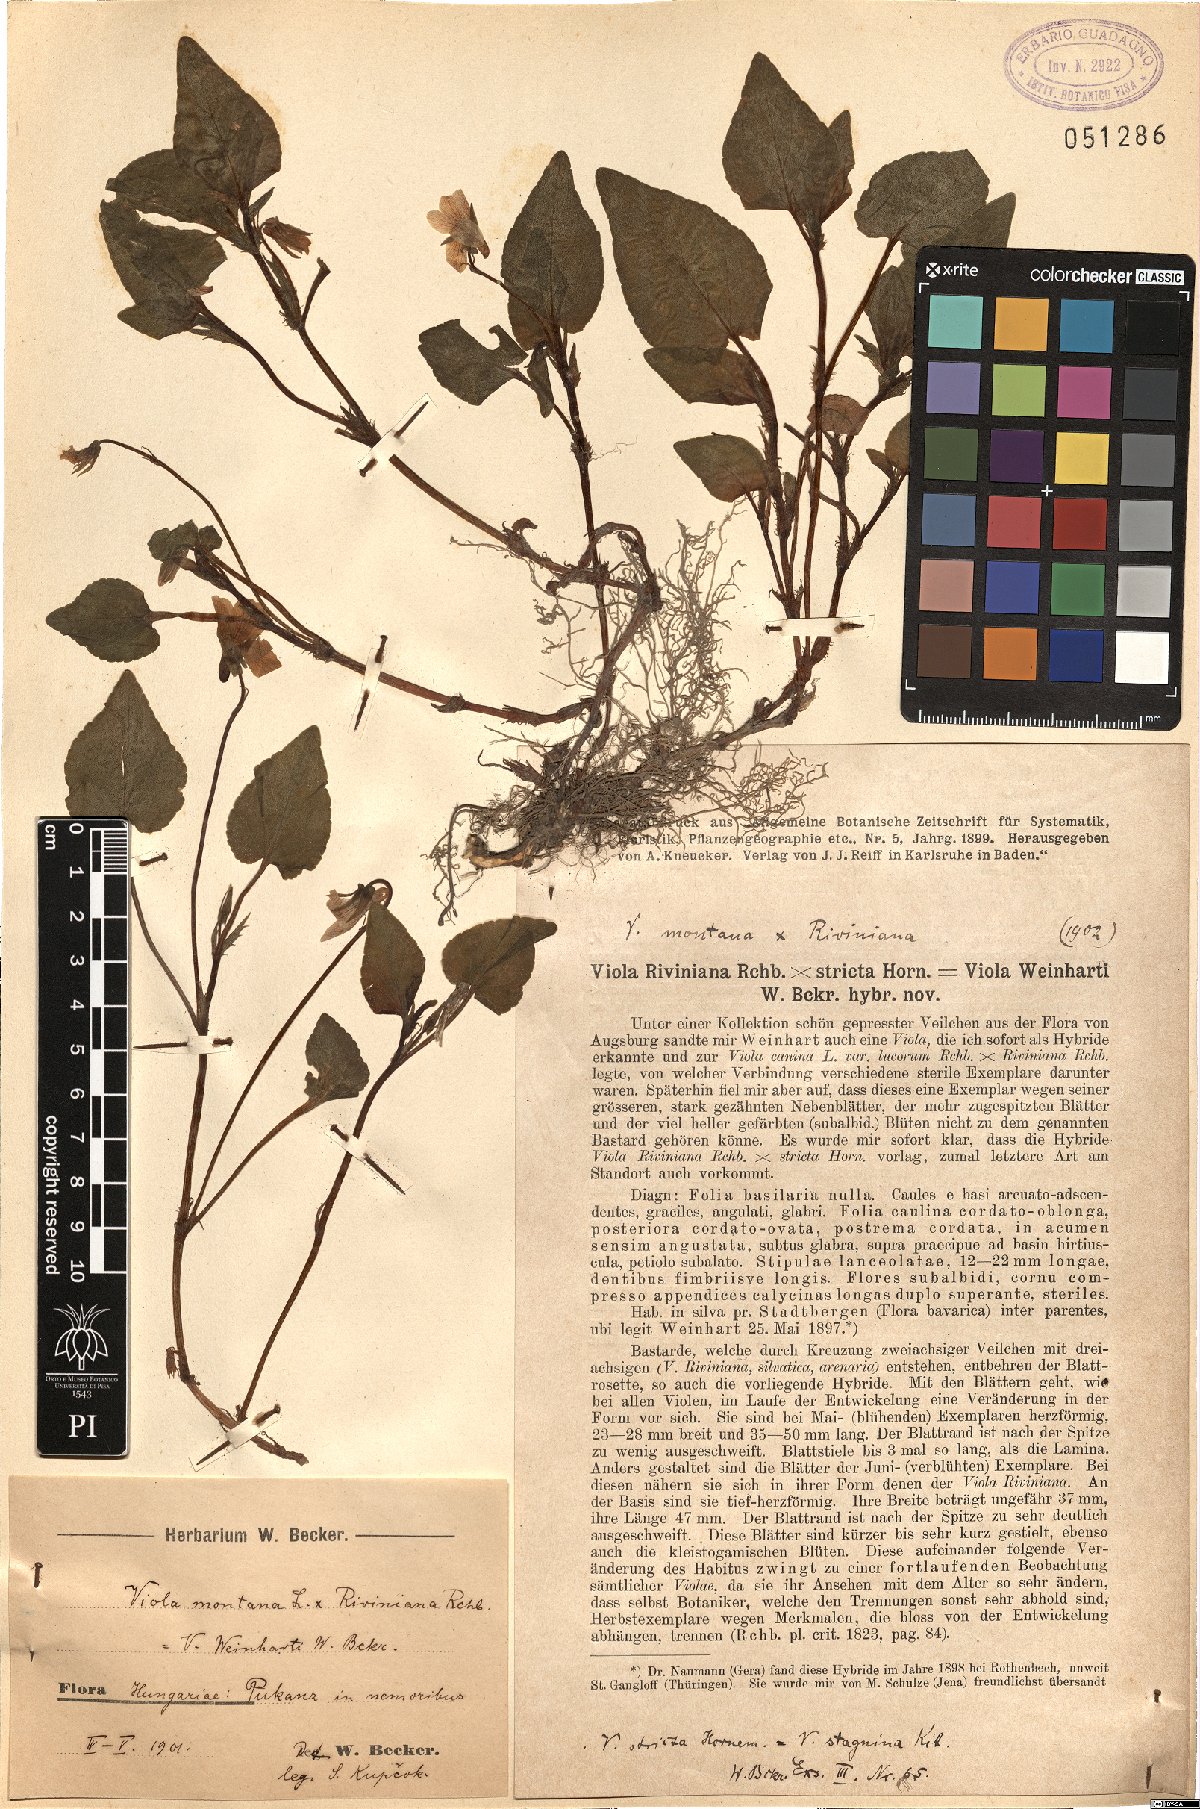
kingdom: Plantae
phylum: Tracheophyta
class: Magnoliopsida
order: Malpighiales
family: Violaceae
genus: Viola
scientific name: Viola kiliensis
